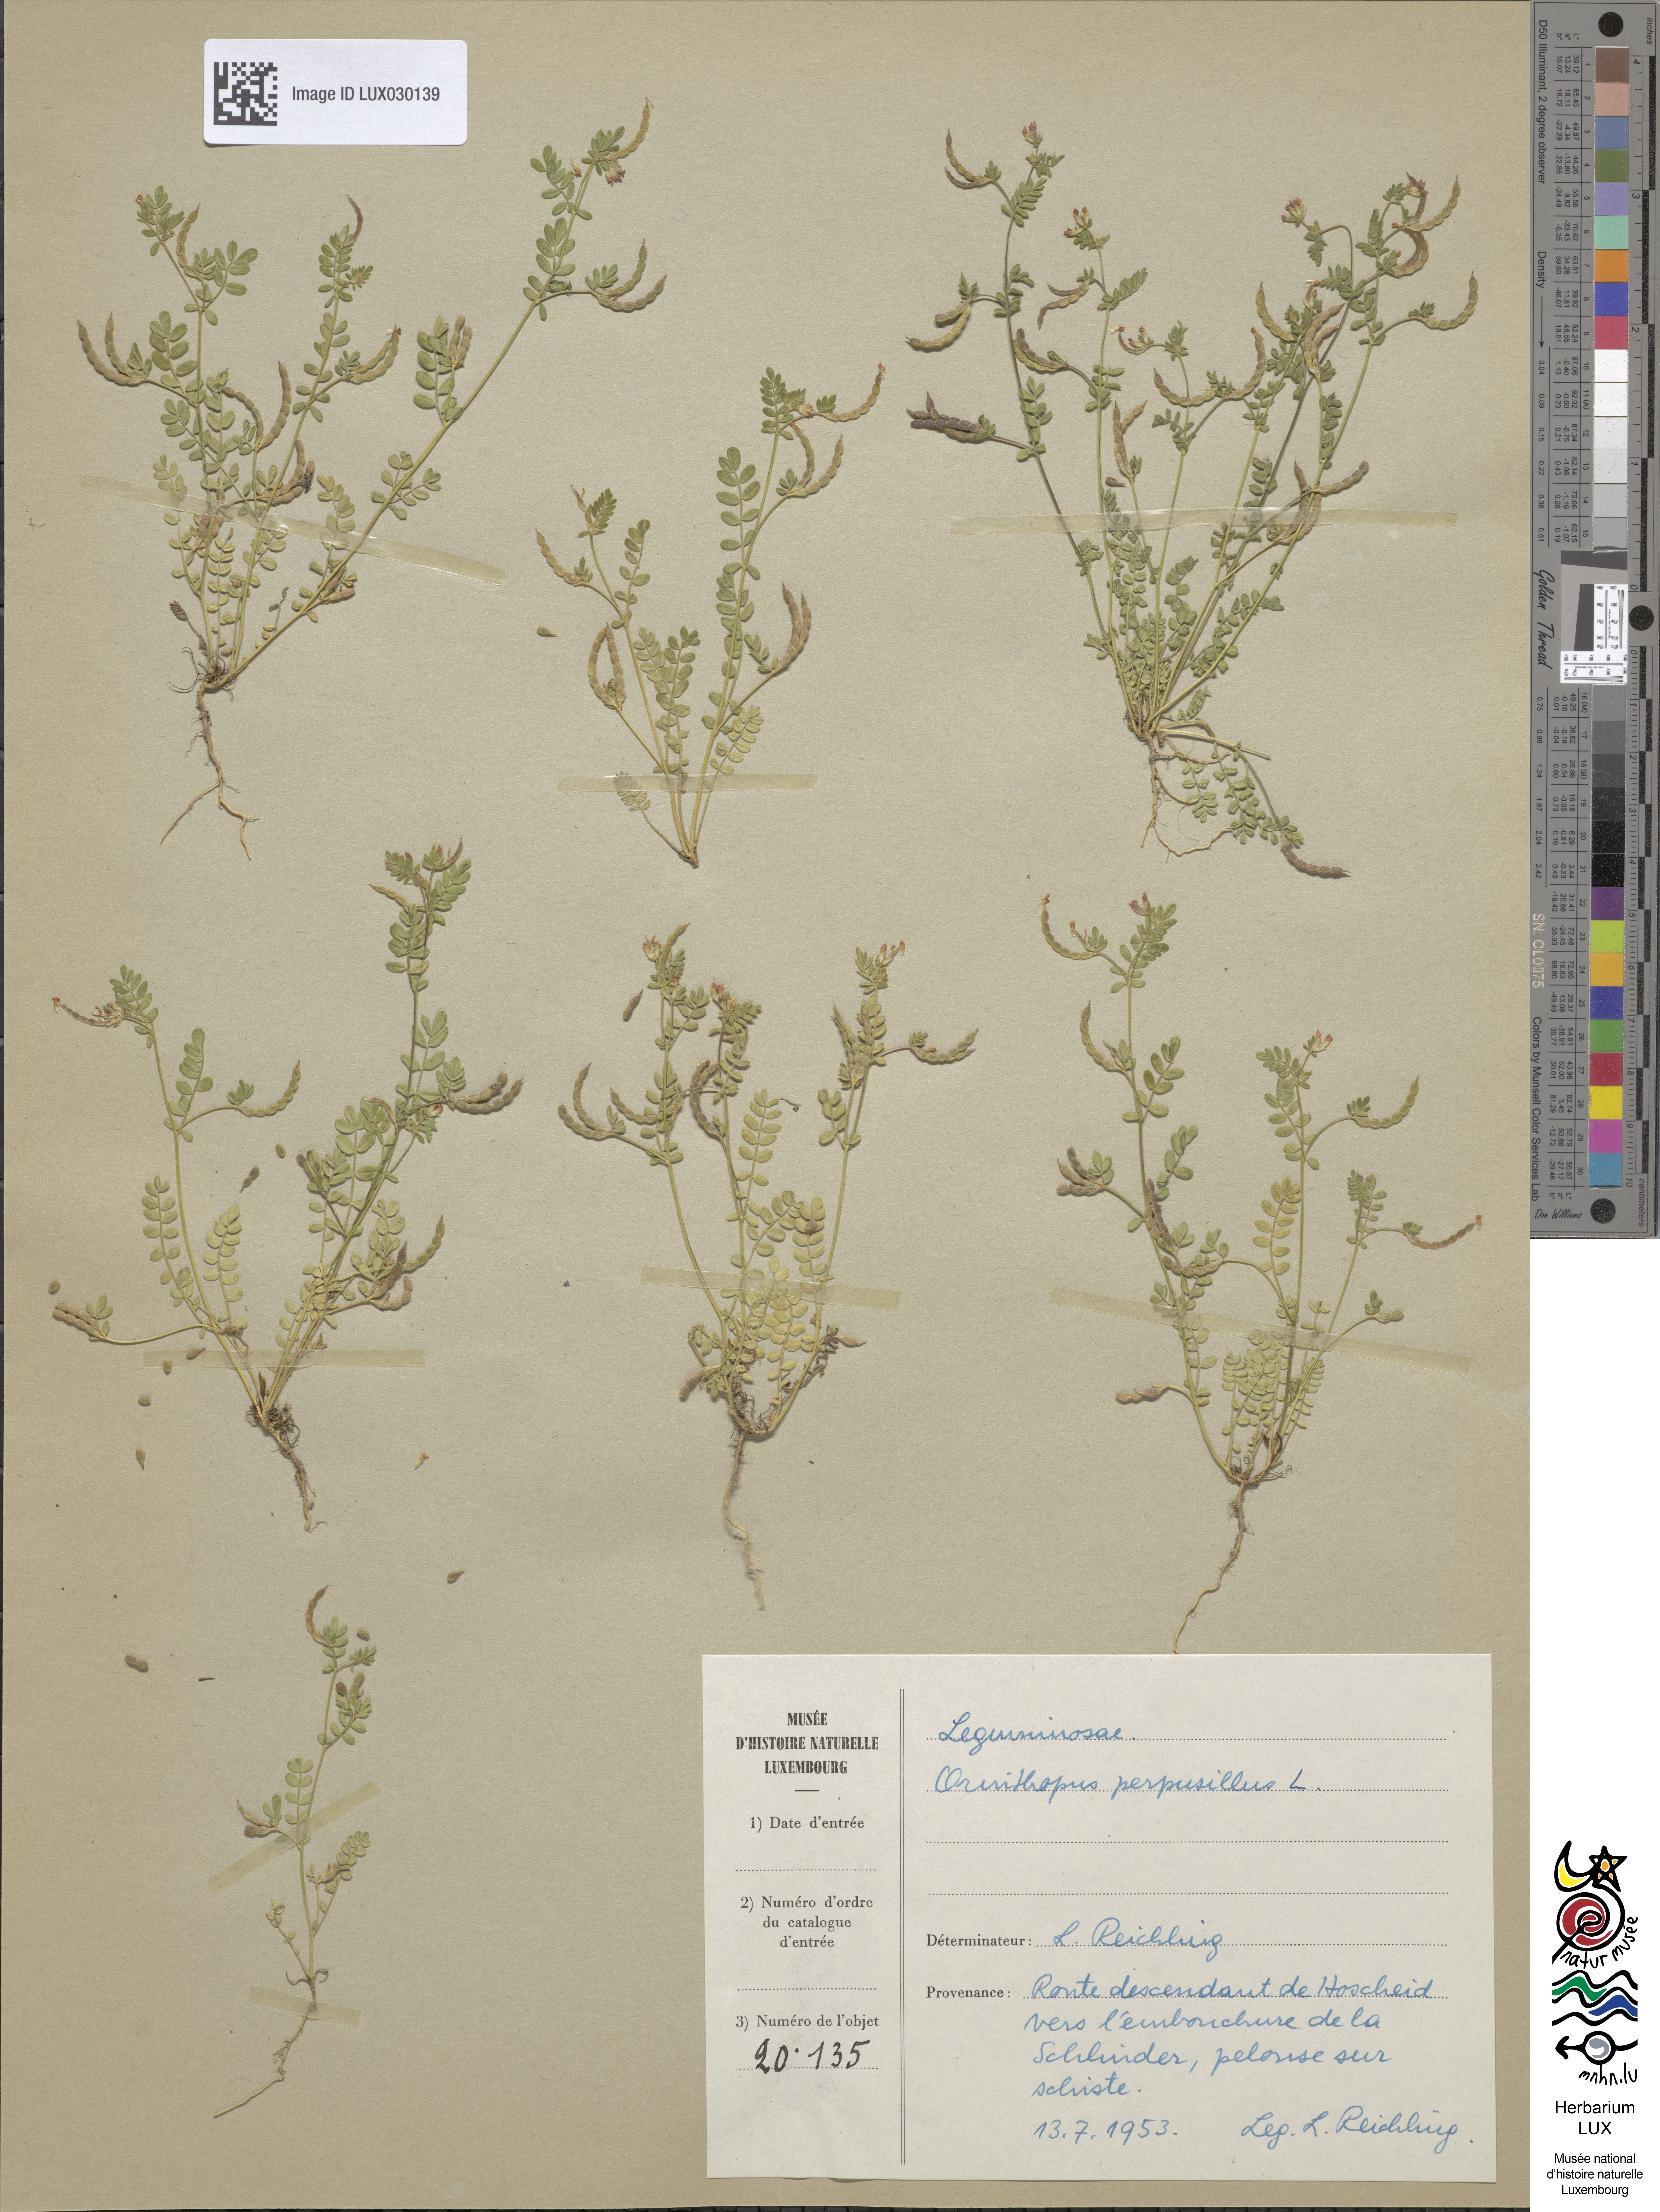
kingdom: Plantae
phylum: Tracheophyta
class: Magnoliopsida
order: Fabales
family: Fabaceae
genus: Ornithopus
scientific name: Ornithopus perpusillus
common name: Bird's-foot
